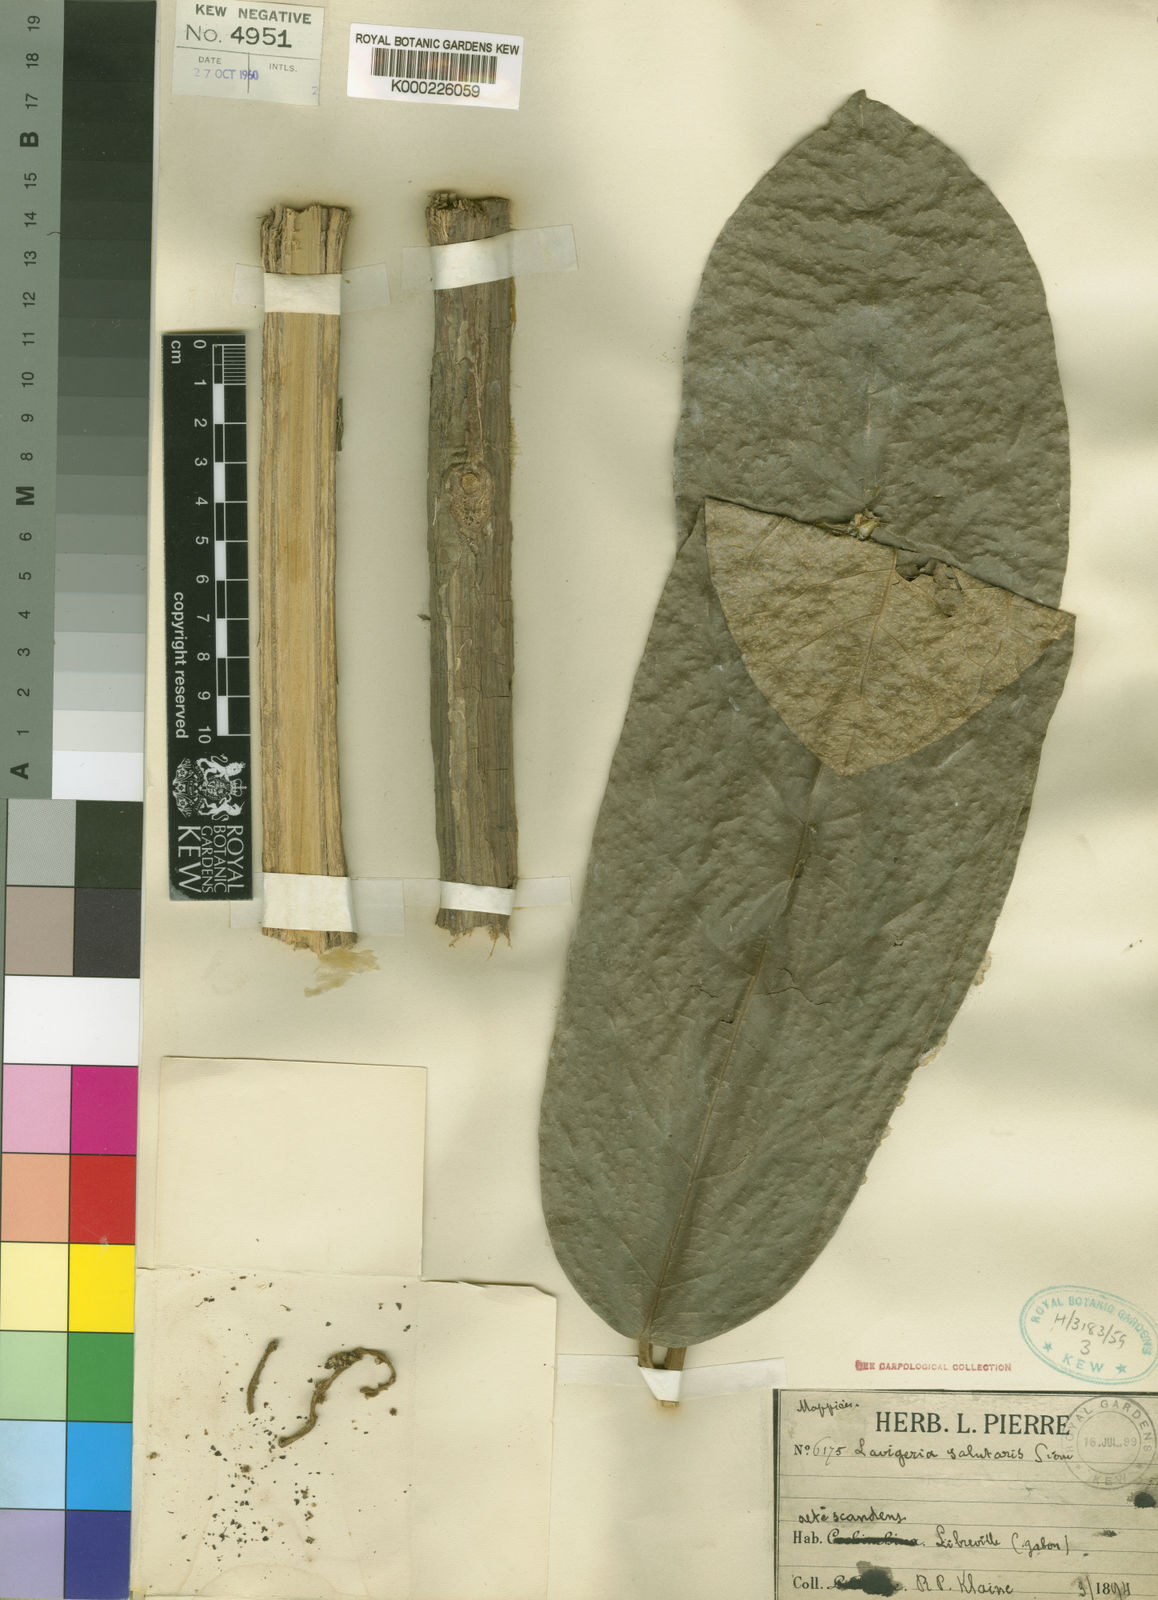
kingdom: Plantae
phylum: Tracheophyta
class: Magnoliopsida
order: Icacinales
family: Icacinaceae
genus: Lavigeria
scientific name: Lavigeria macrocarpa
